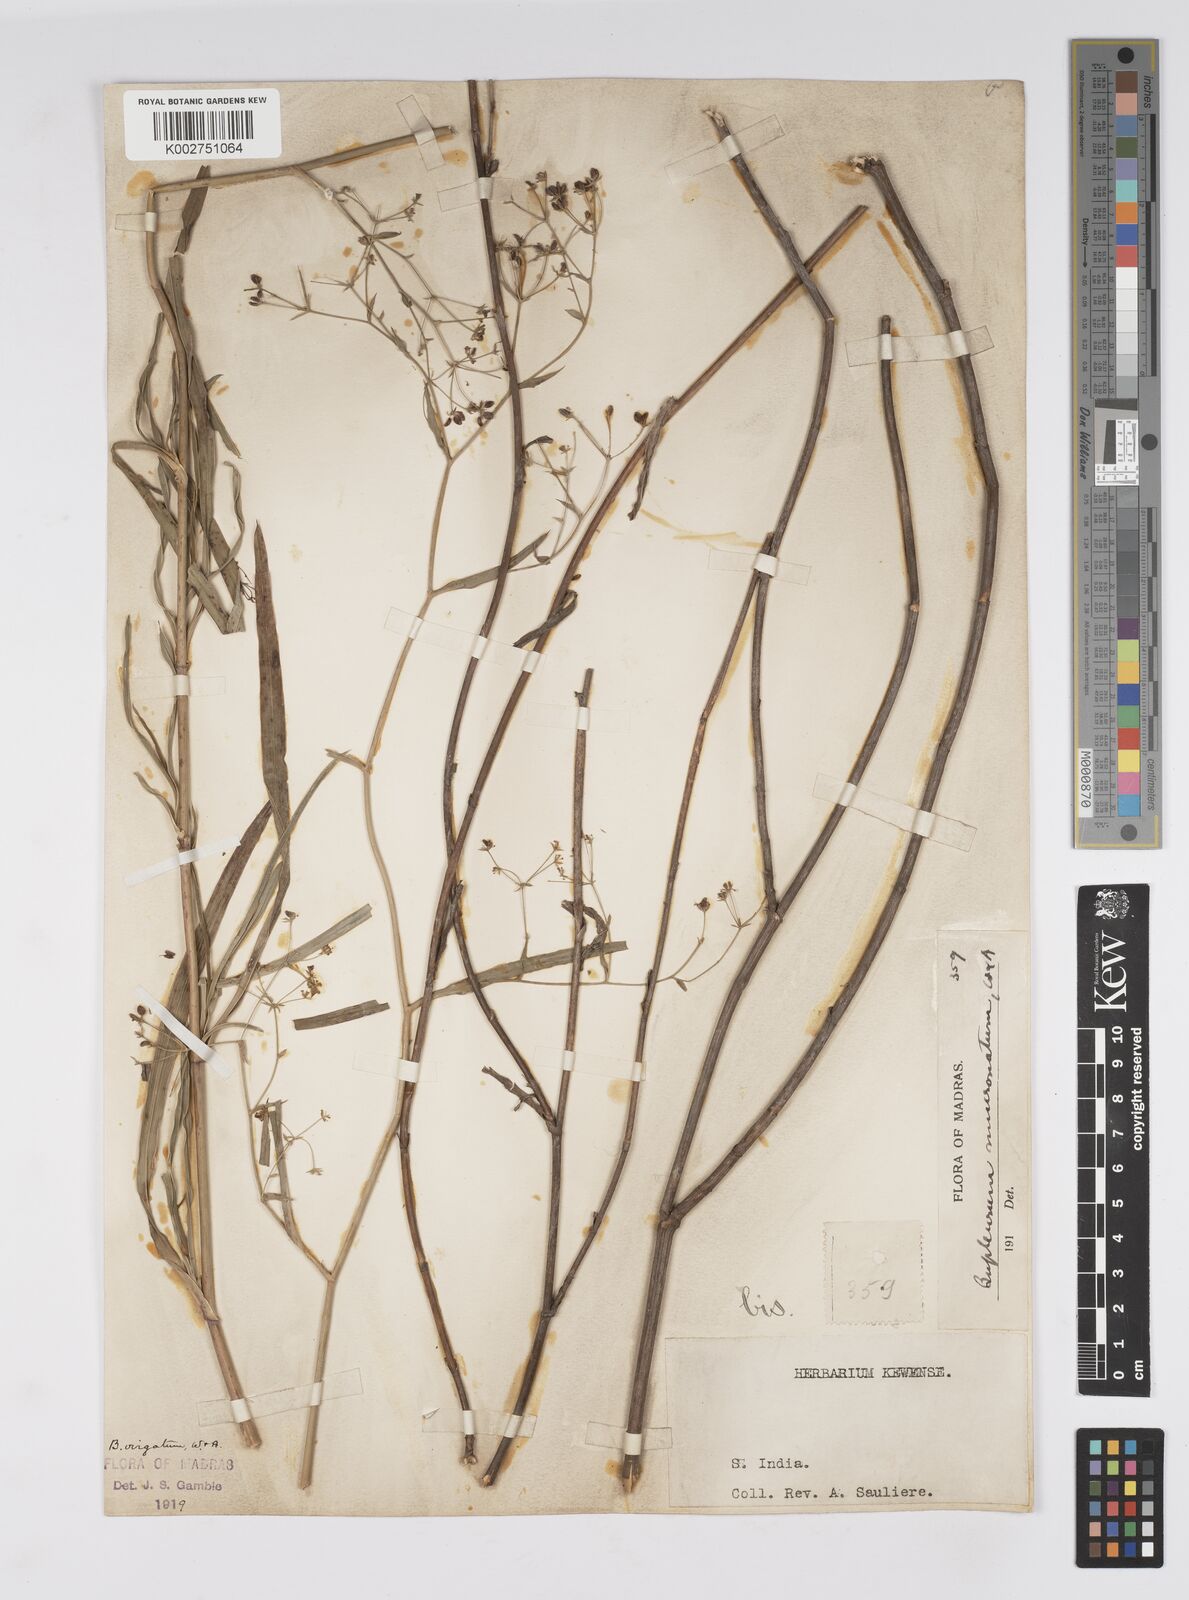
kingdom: Plantae
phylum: Tracheophyta
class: Magnoliopsida
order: Apiales
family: Apiaceae
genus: Bupleurum
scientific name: Bupleurum
